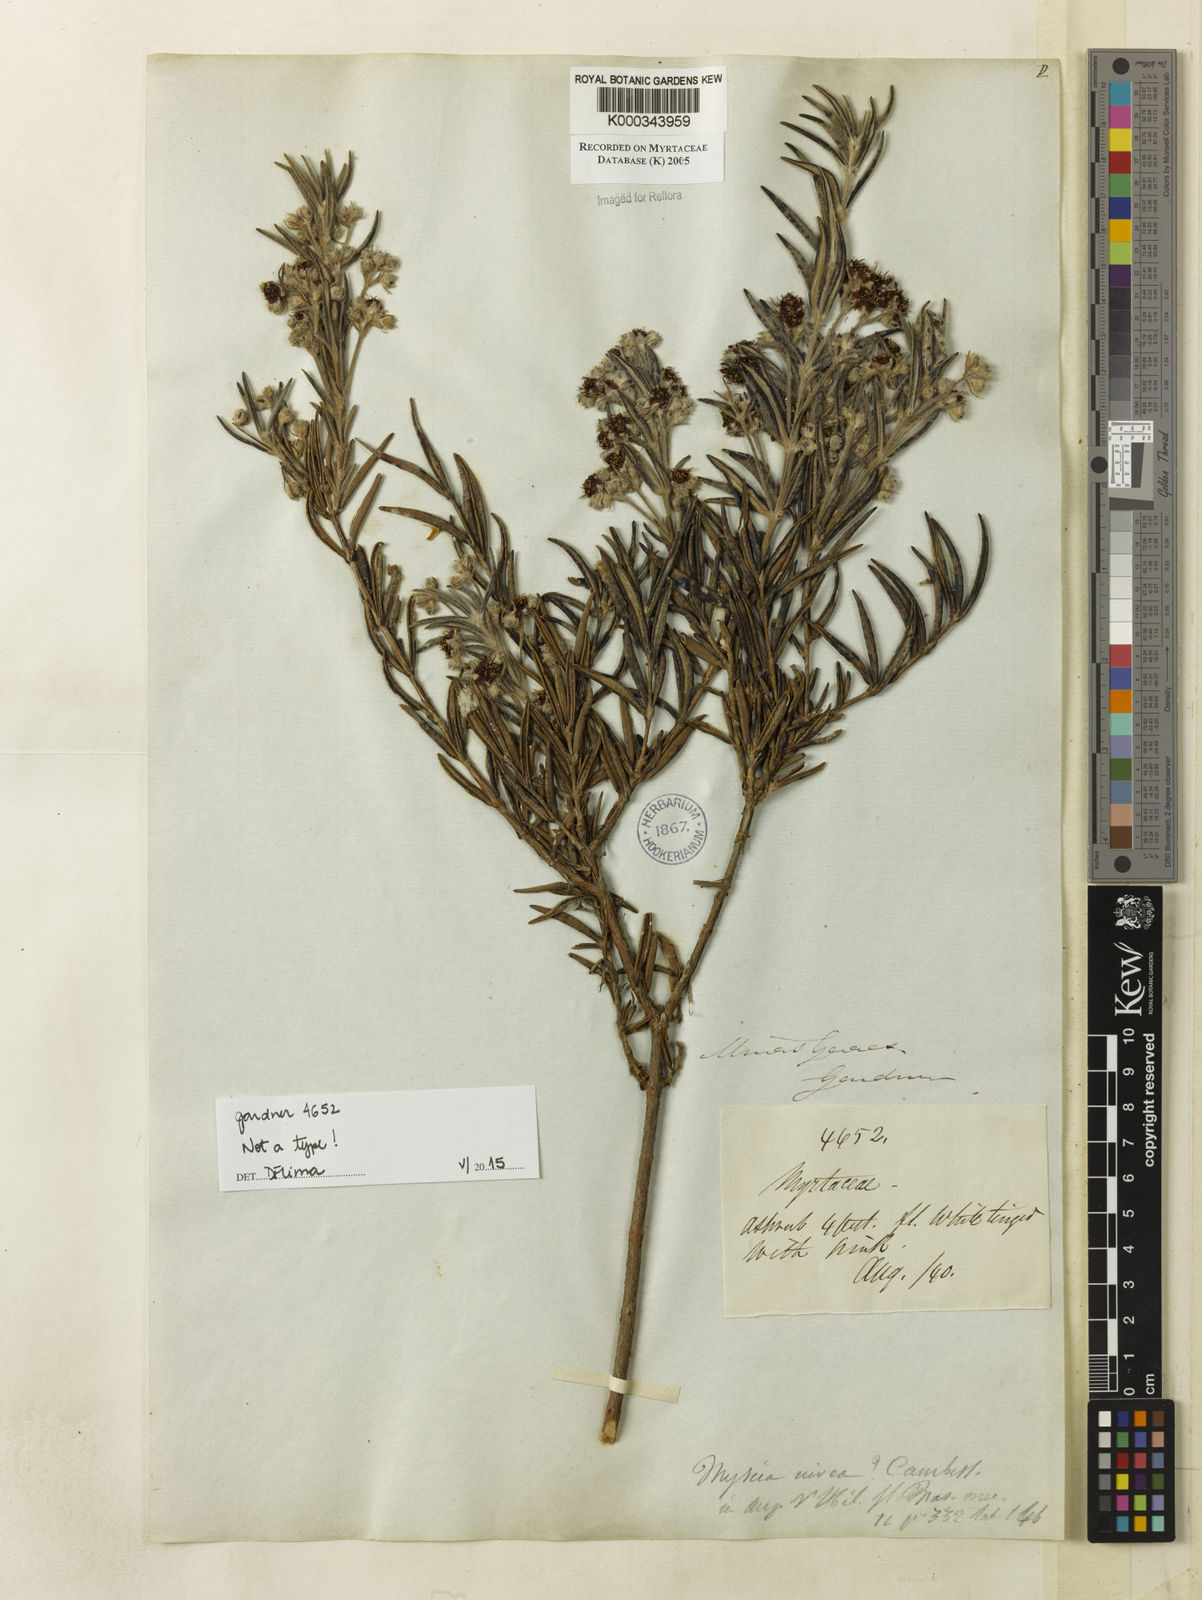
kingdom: Plantae
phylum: Tracheophyta
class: Magnoliopsida
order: Myrtales
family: Myrtaceae
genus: Myrcia
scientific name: Myrcia nivea
